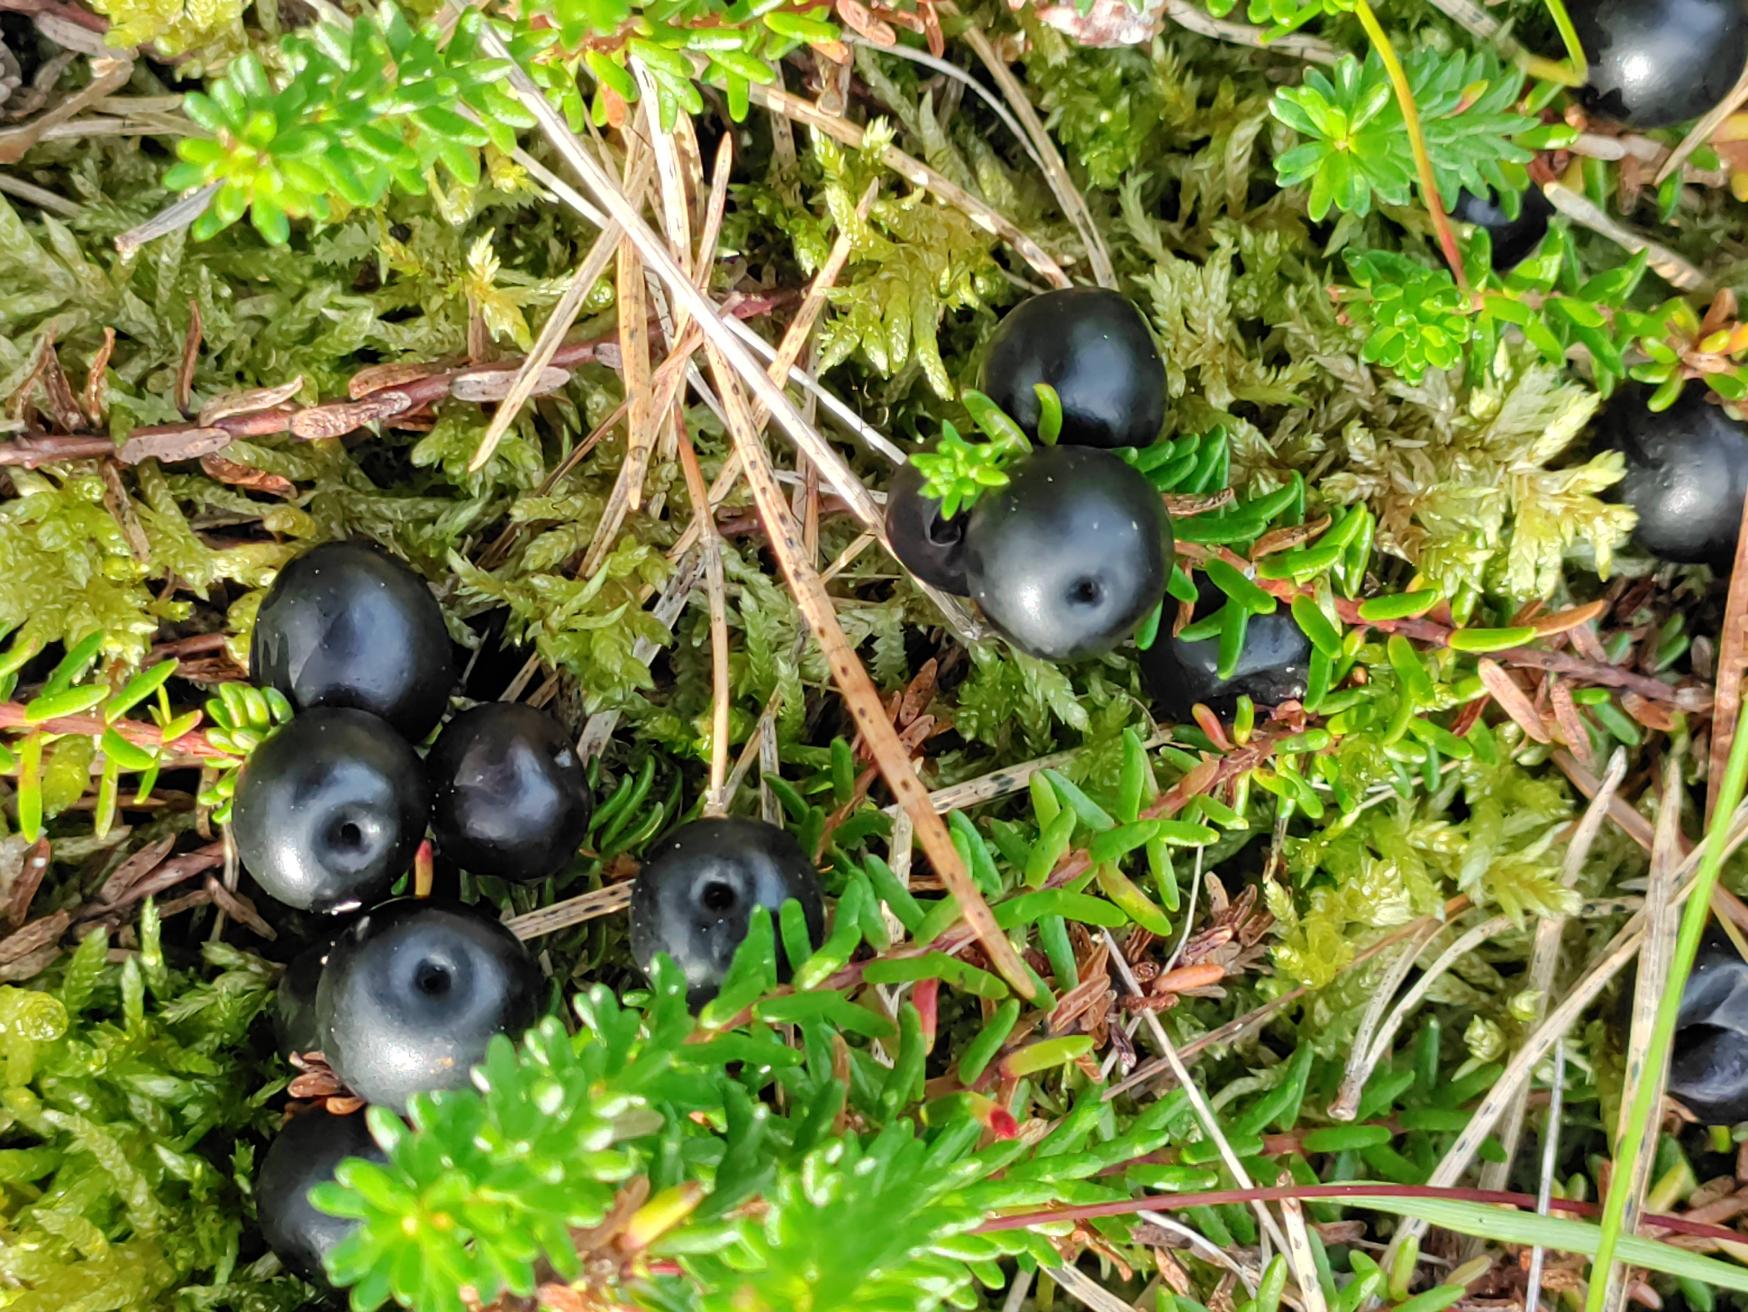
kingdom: Plantae
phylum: Tracheophyta
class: Magnoliopsida
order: Ericales
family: Ericaceae
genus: Empetrum
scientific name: Empetrum nigrum
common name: Revling
